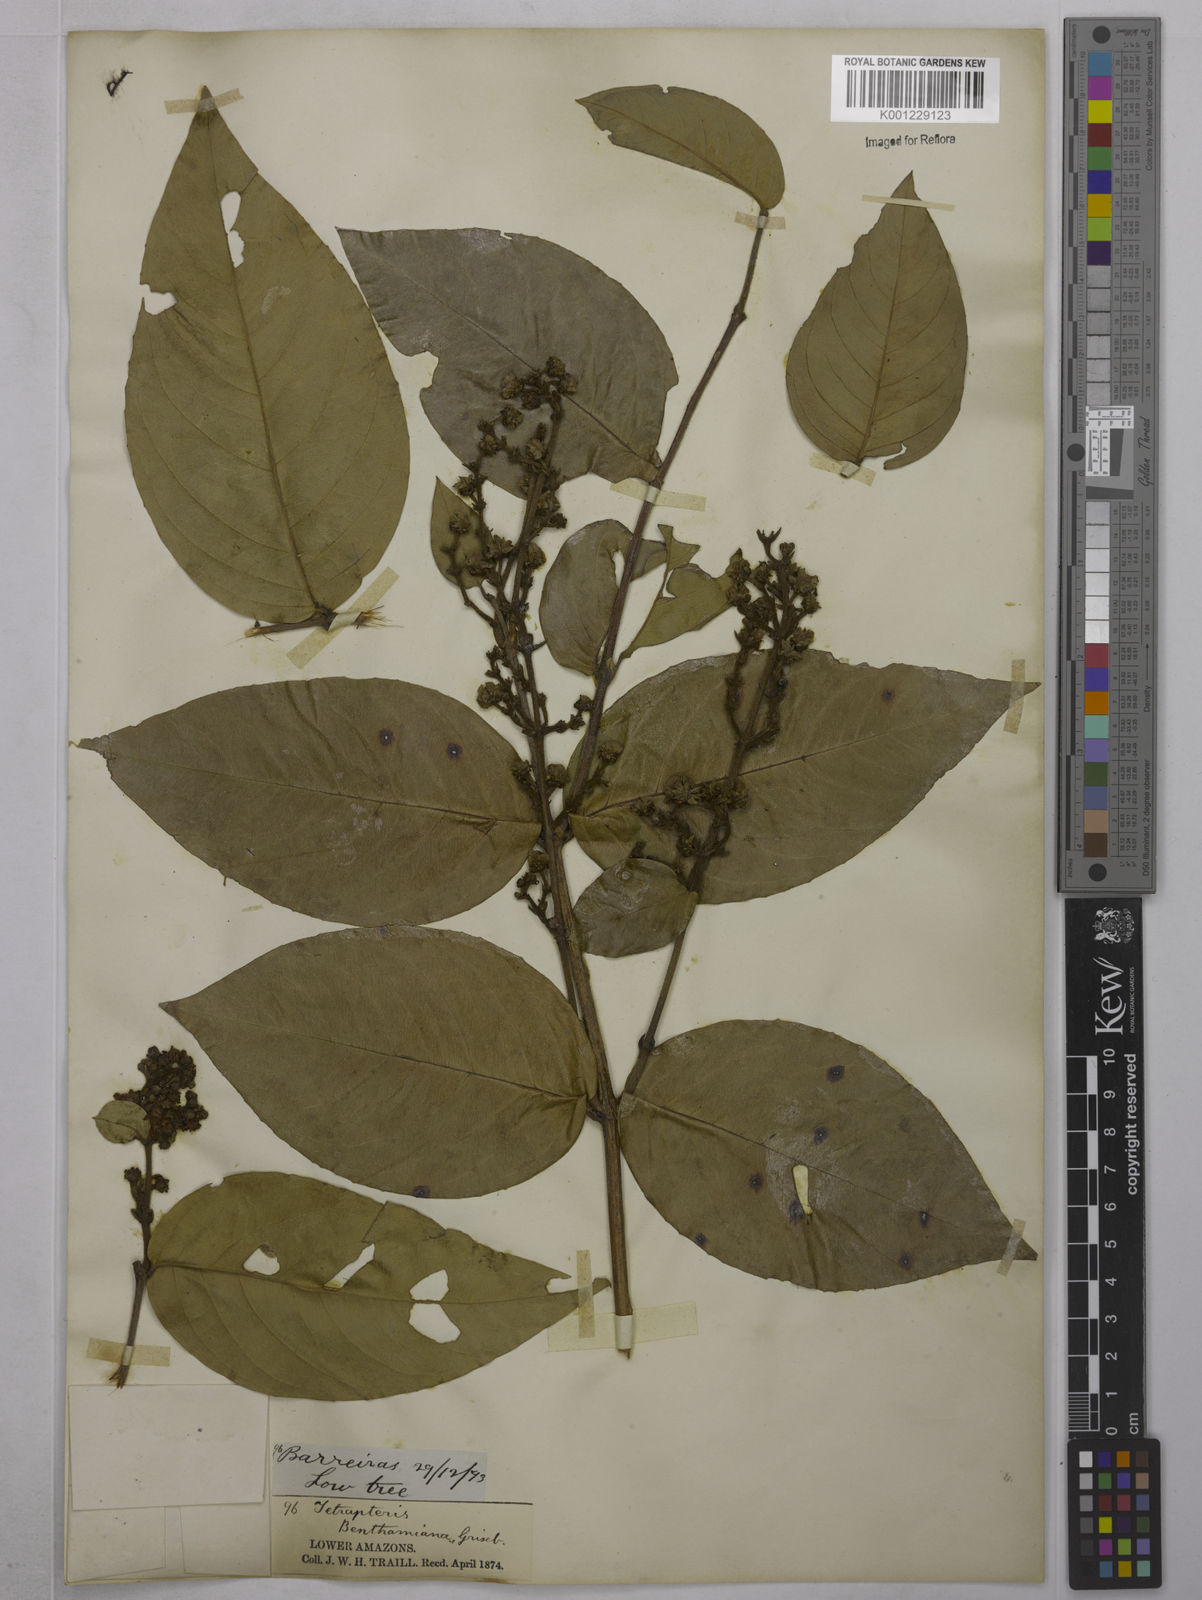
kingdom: Plantae
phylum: Tracheophyta
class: Magnoliopsida
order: Malpighiales
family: Malpighiaceae
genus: Niedenzuella
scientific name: Niedenzuella stannea
